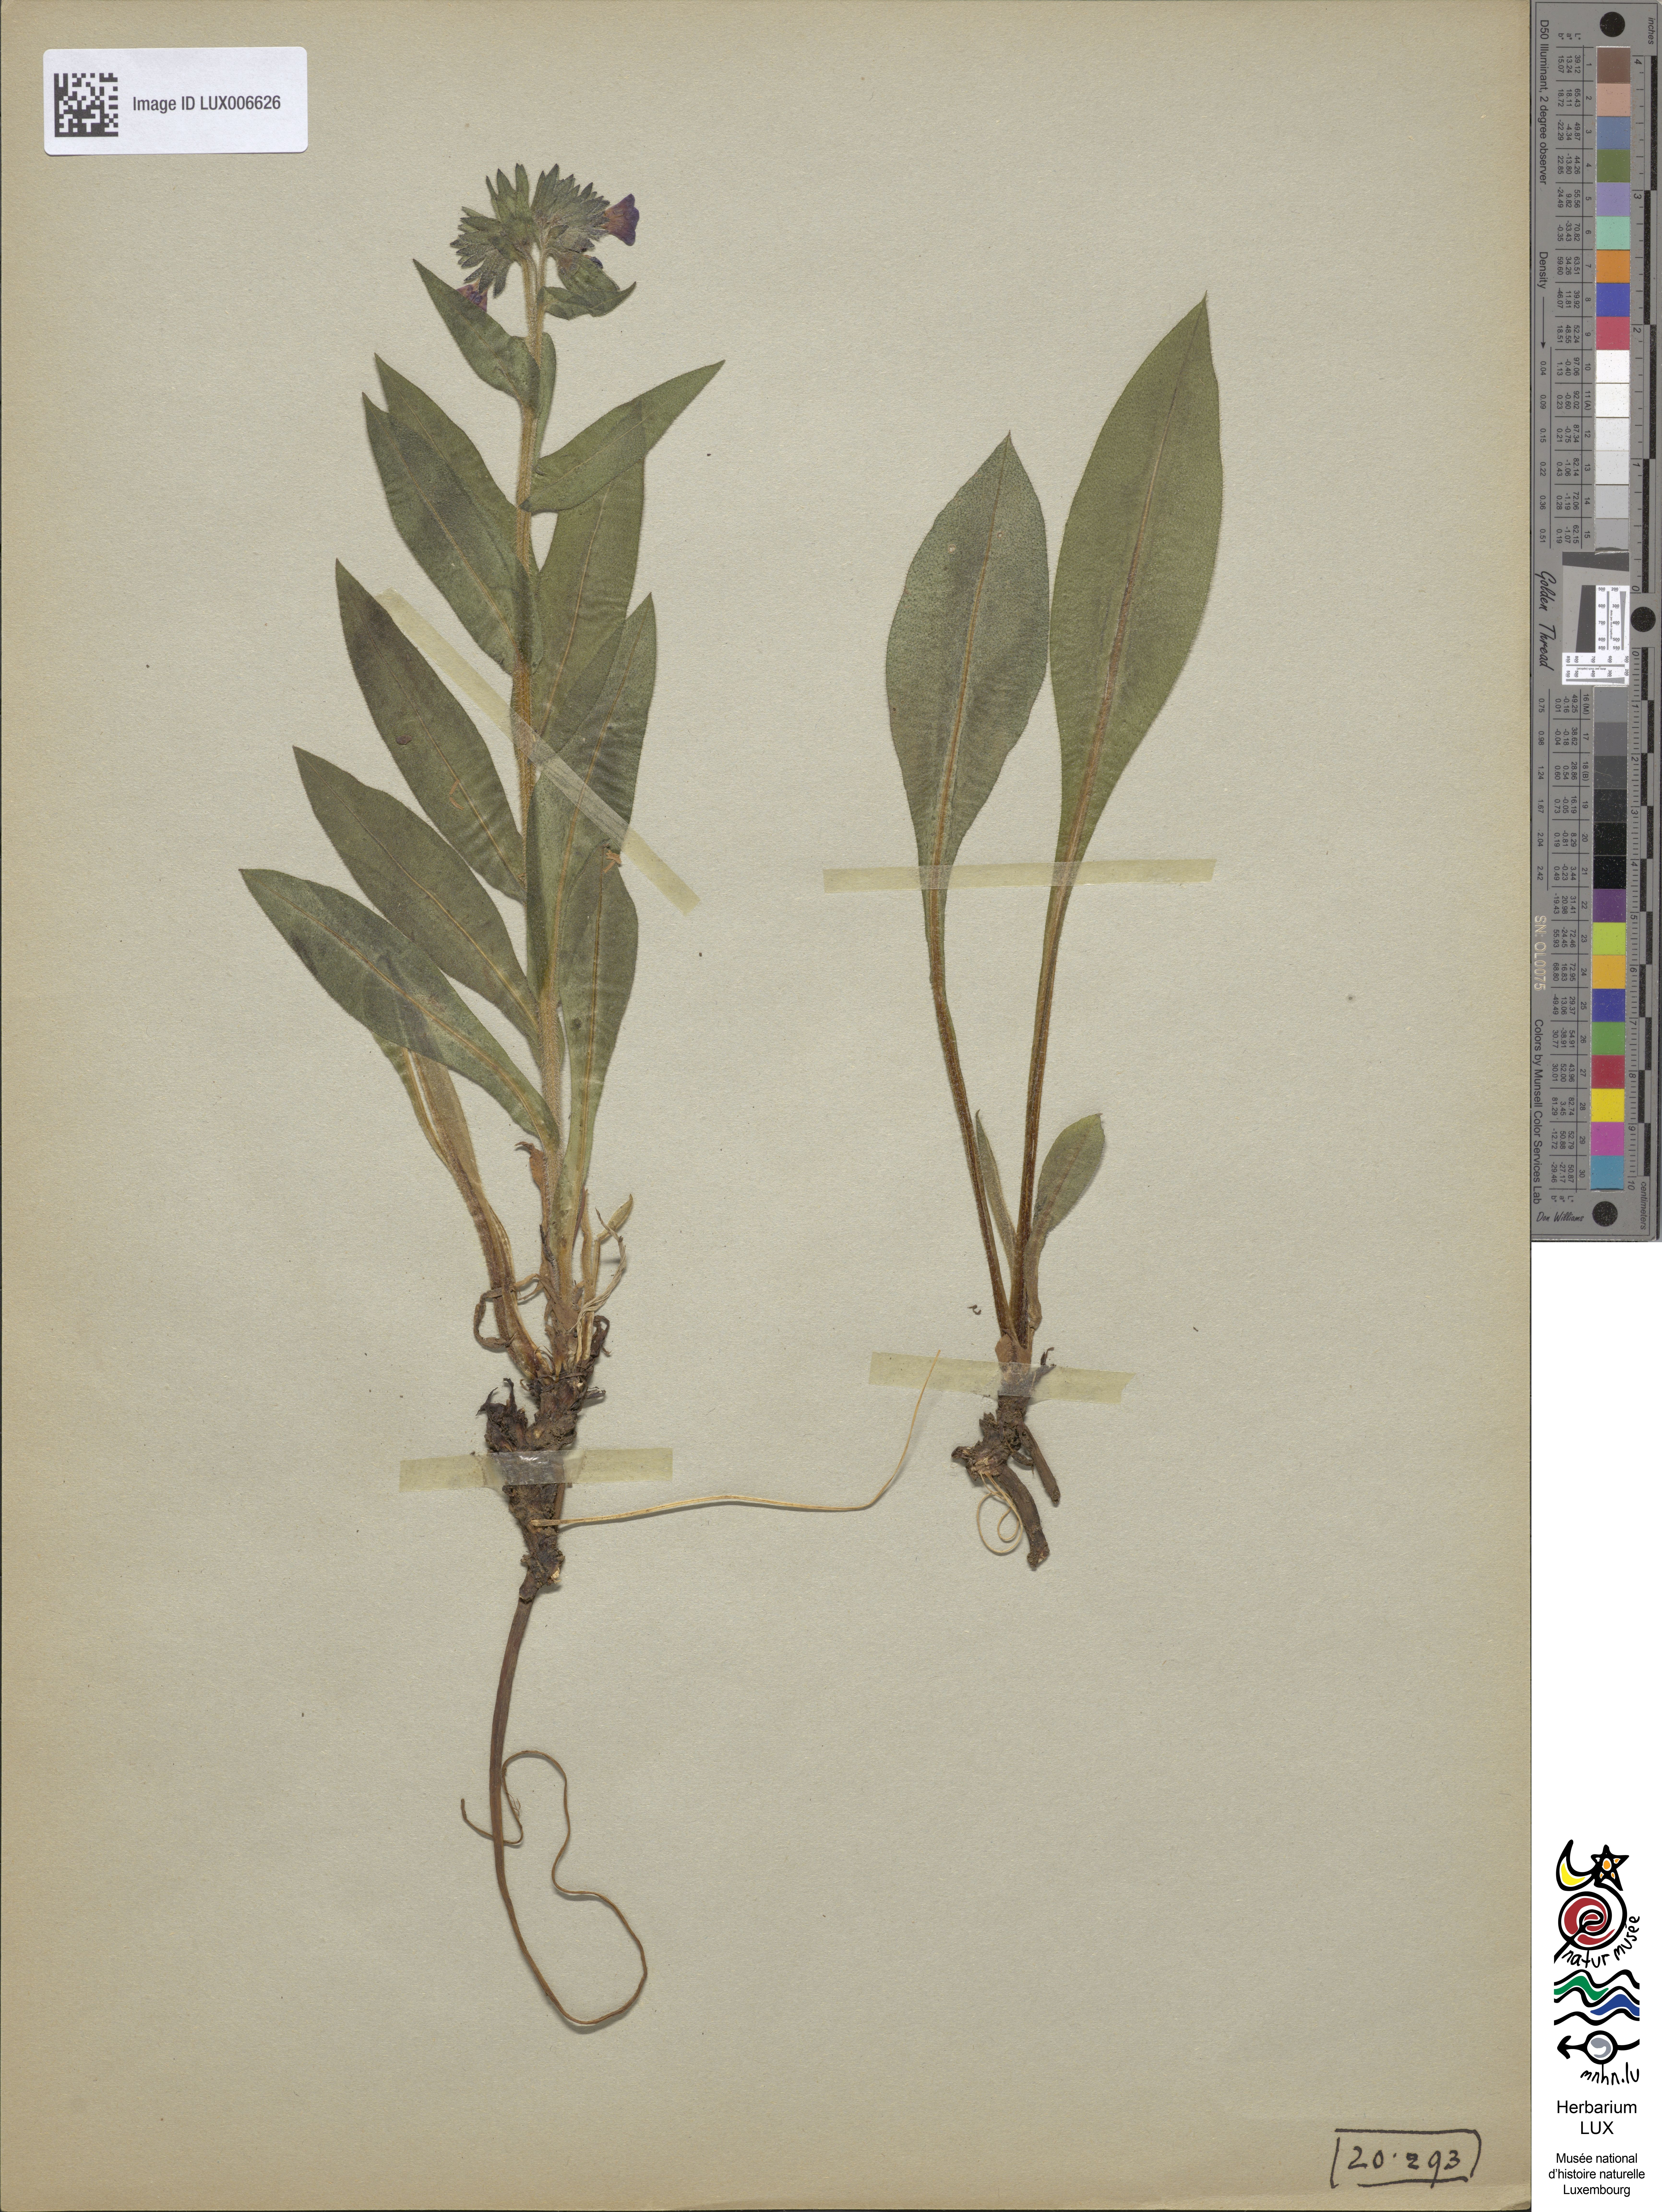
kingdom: Plantae
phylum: Tracheophyta
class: Magnoliopsida
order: Boraginales
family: Boraginaceae
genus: Pulmonaria
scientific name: Pulmonaria montana
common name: Mountain lungwort
